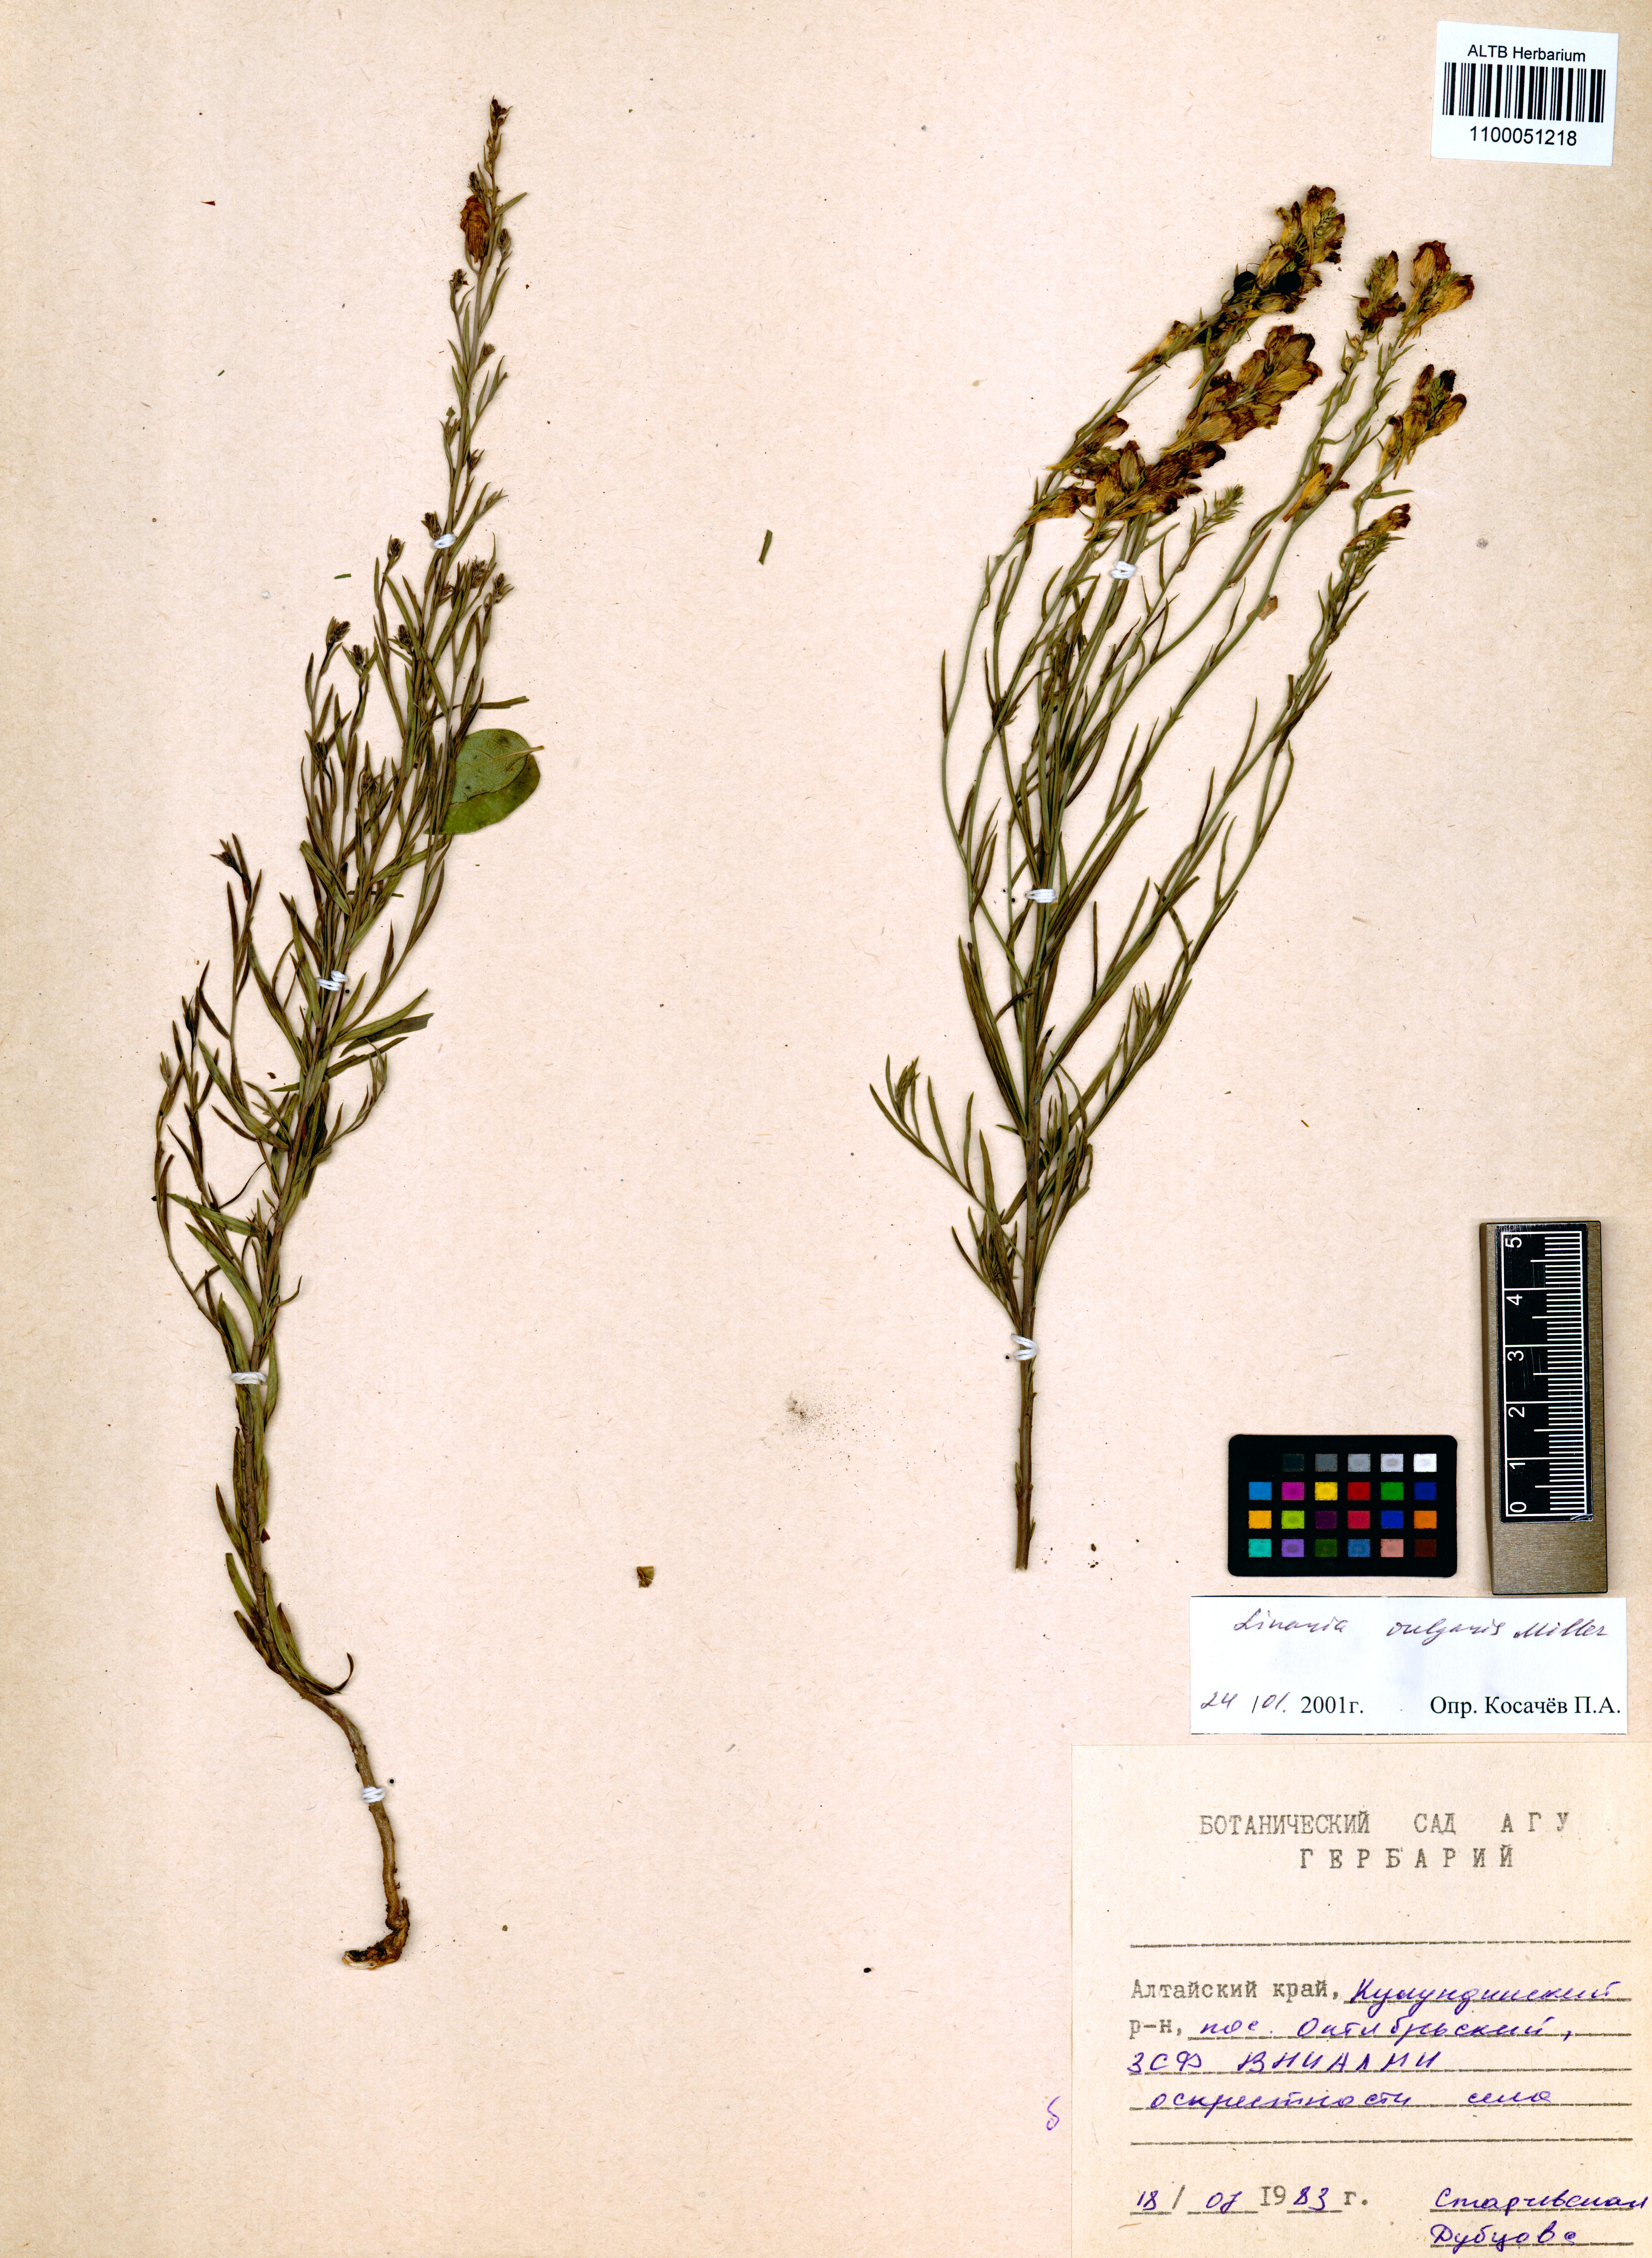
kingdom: Plantae
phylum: Tracheophyta
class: Magnoliopsida
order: Lamiales
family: Plantaginaceae
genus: Linaria
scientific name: Linaria vulgaris
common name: Butter and eggs
